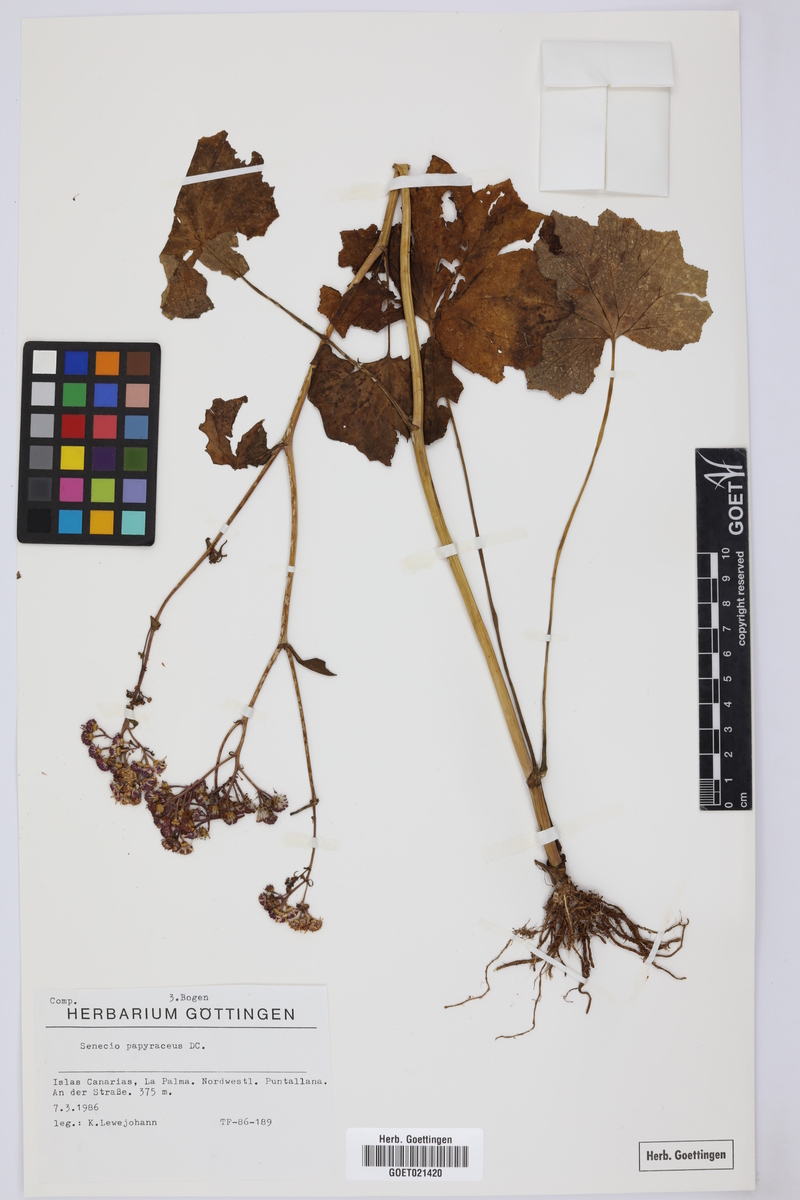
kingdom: Plantae
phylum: Tracheophyta
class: Magnoliopsida
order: Asterales
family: Asteraceae
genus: Pericallis
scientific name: Pericallis papyracea
